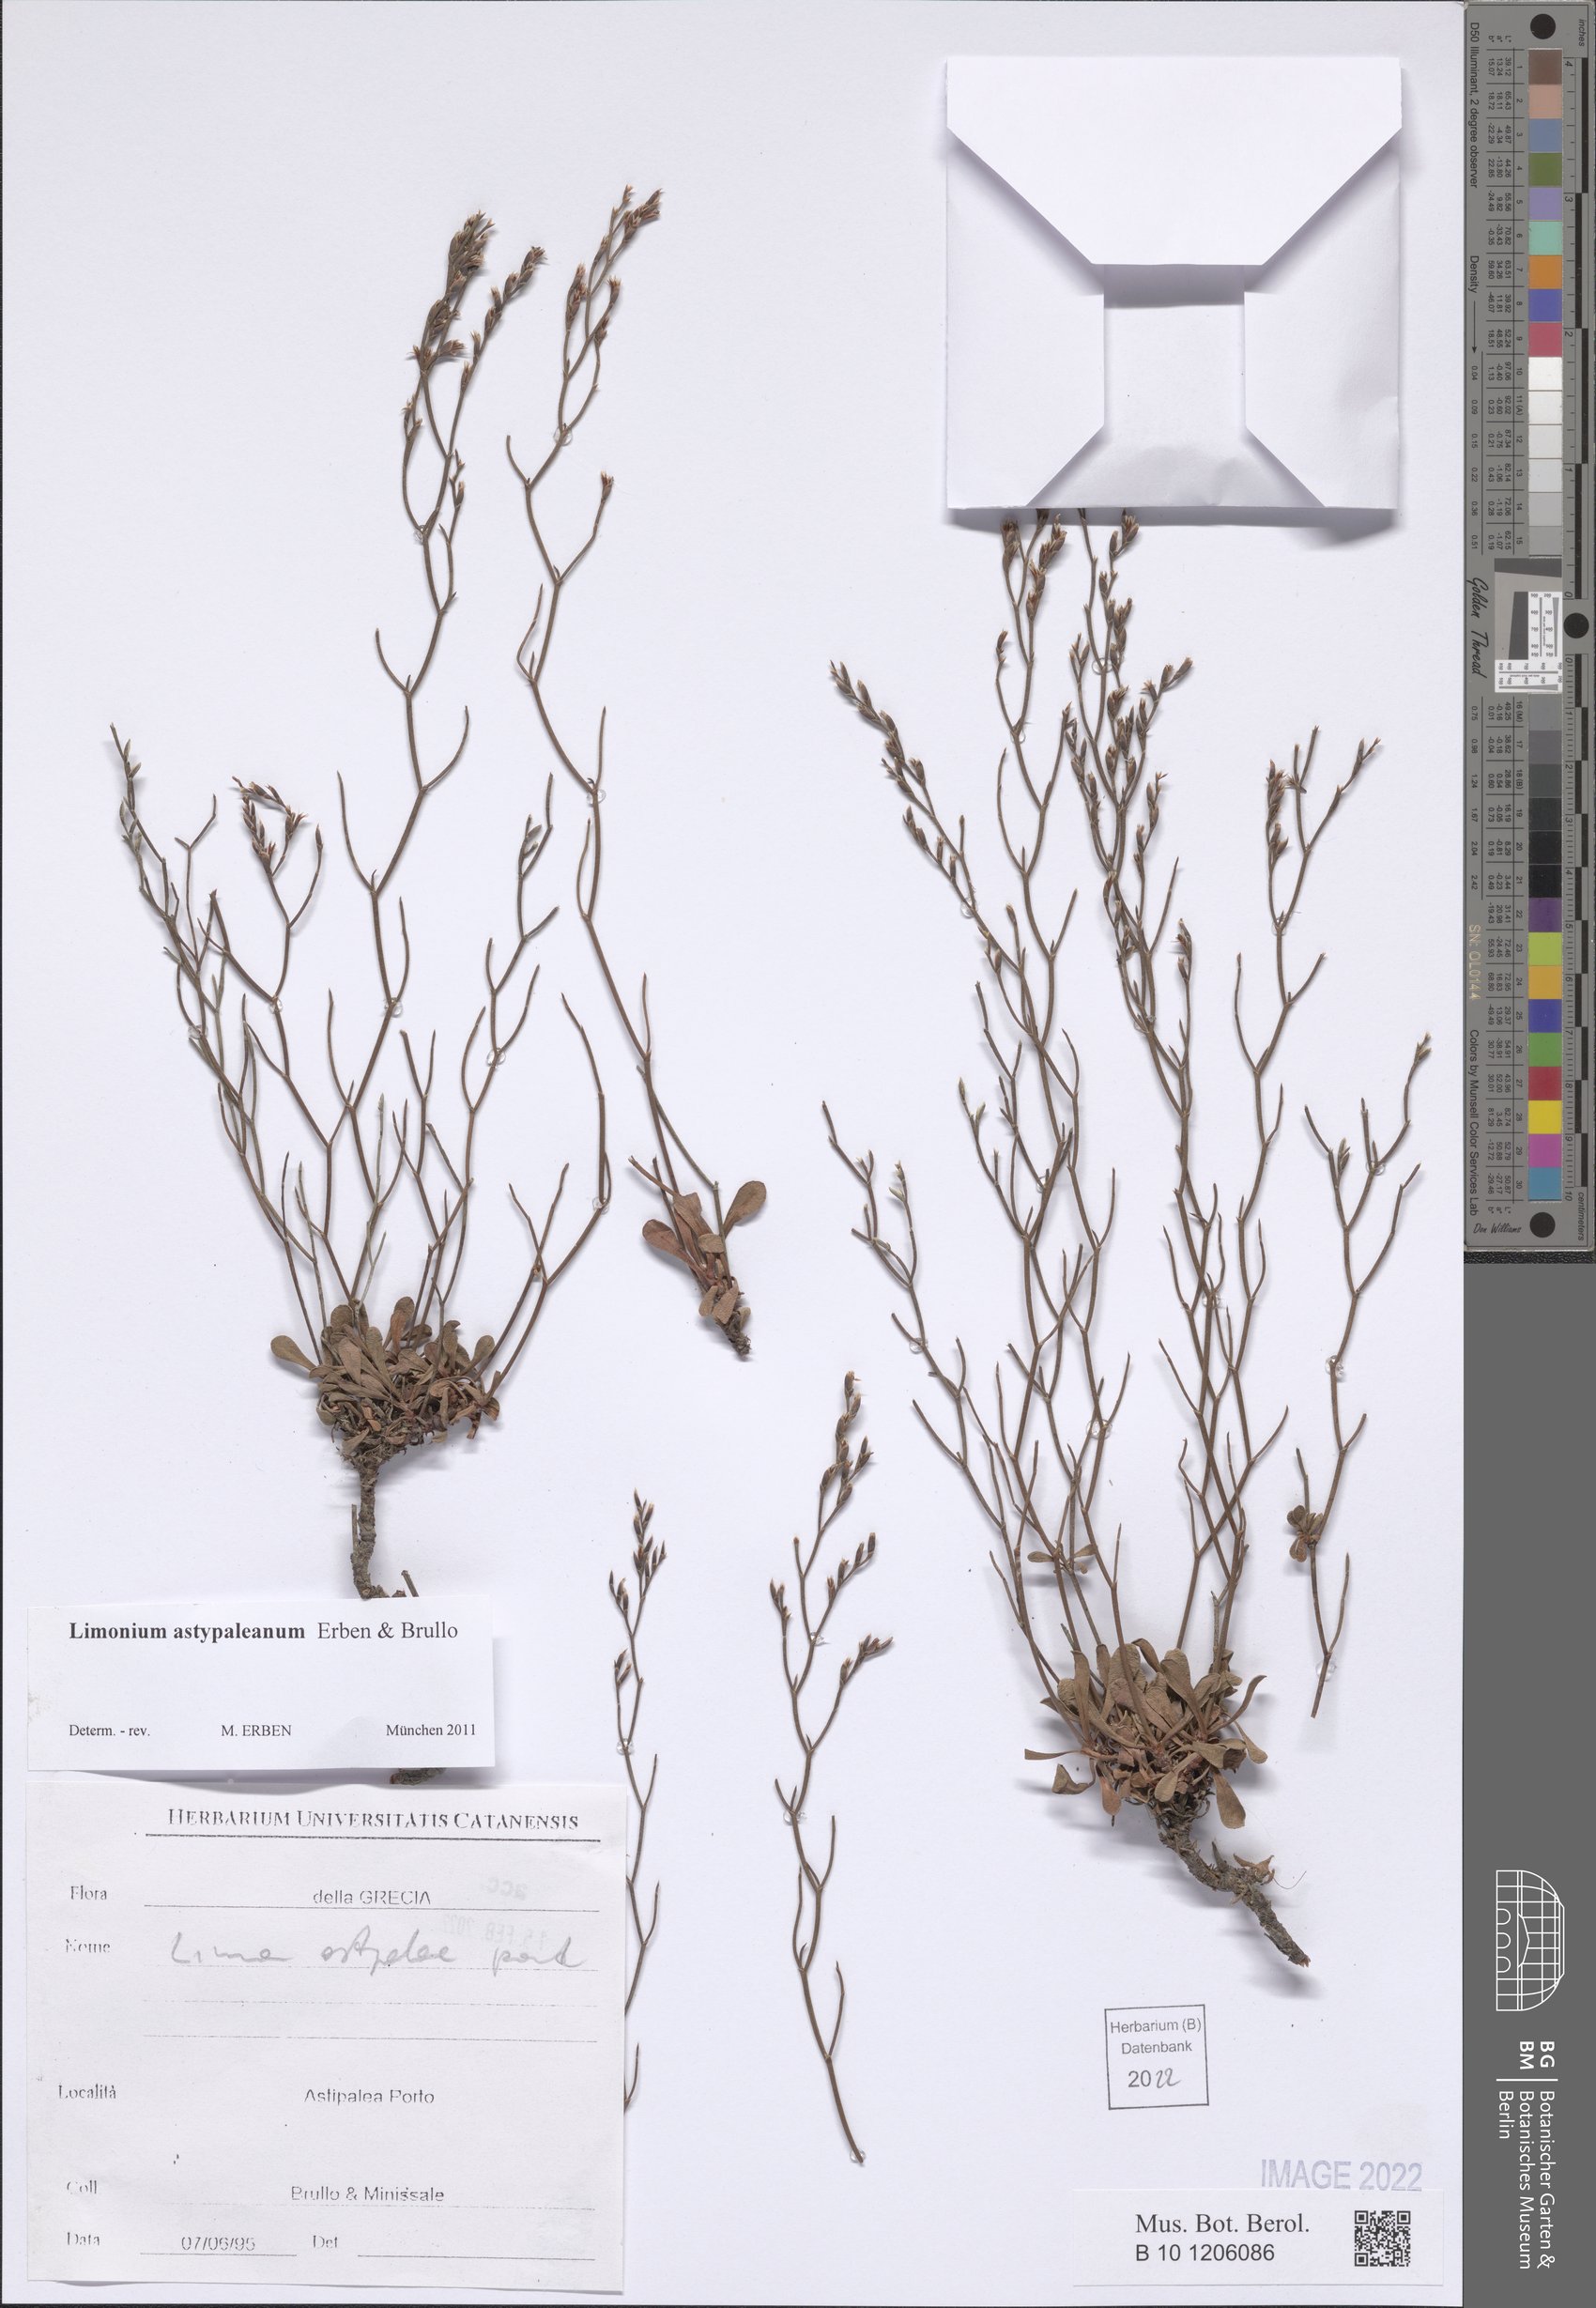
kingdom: Plantae
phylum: Tracheophyta
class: Magnoliopsida
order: Caryophyllales
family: Plumbaginaceae
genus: Limonium
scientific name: Limonium astypaleanum
